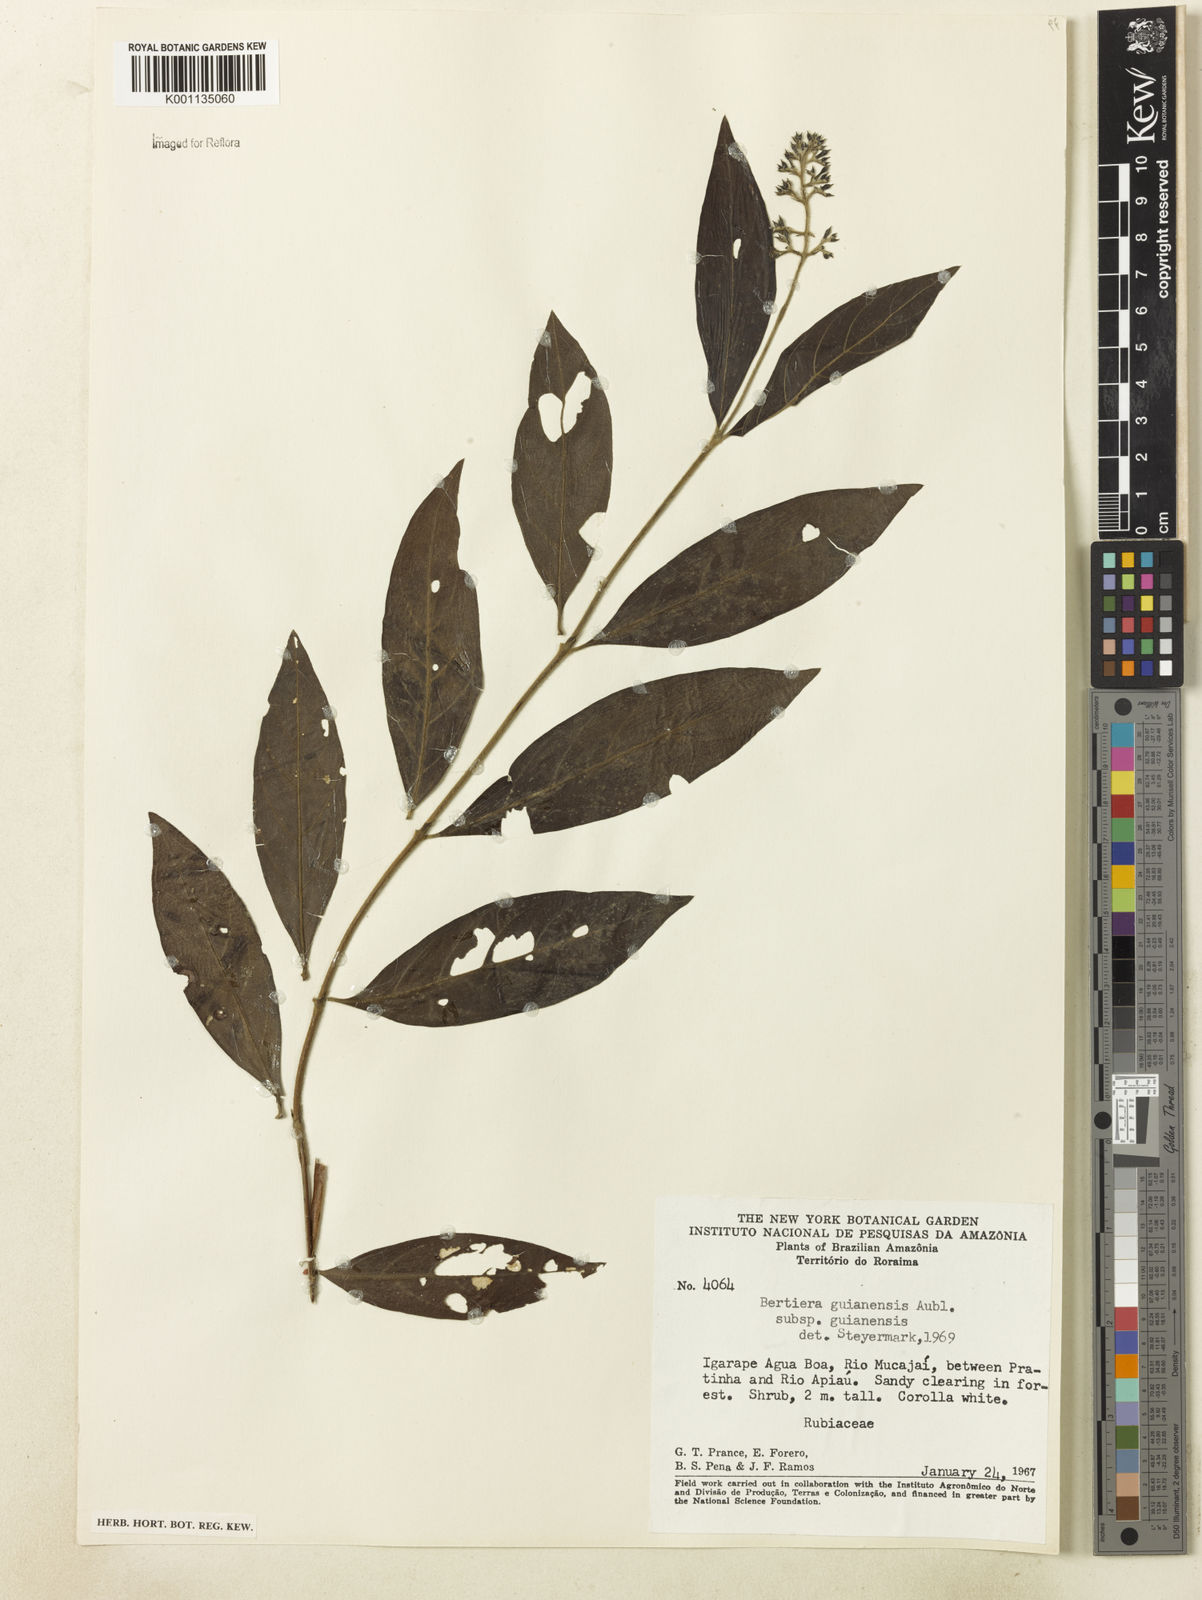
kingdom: Plantae
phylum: Tracheophyta
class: Magnoliopsida
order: Gentianales
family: Rubiaceae
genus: Bertiera
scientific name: Bertiera guianensis
